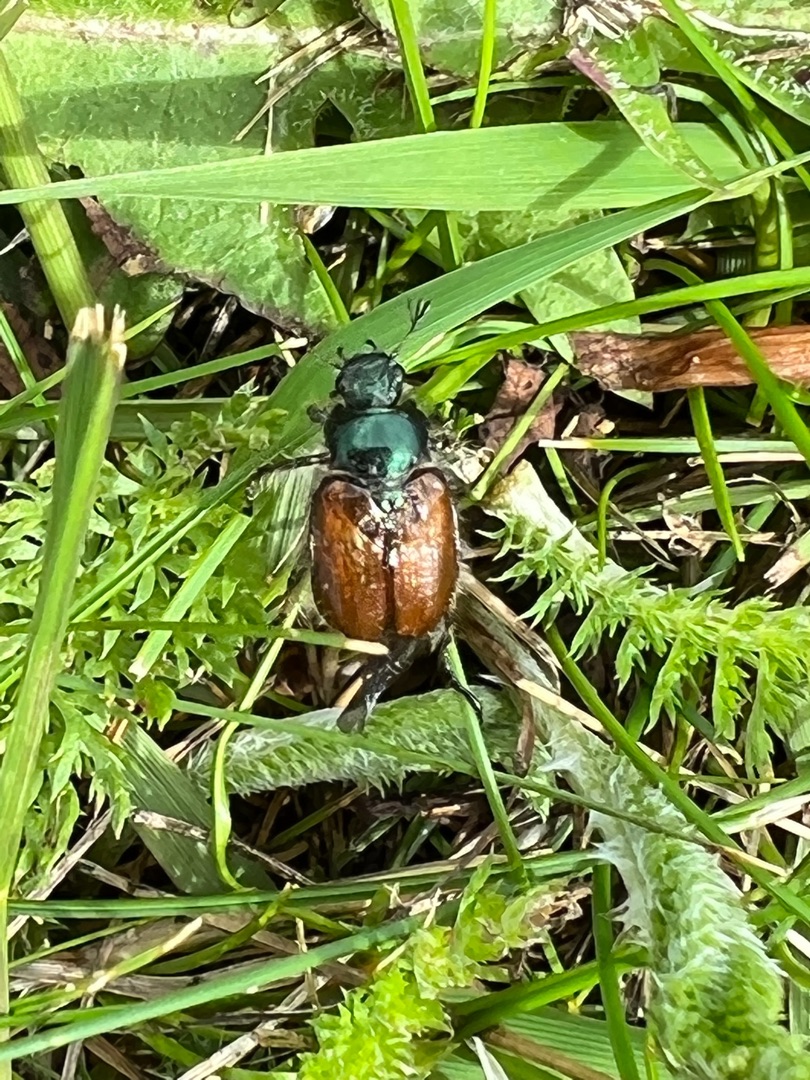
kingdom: Animalia
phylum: Arthropoda
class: Insecta
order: Coleoptera
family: Scarabaeidae
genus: Phyllopertha
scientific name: Phyllopertha horticola
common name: Gåsebille
